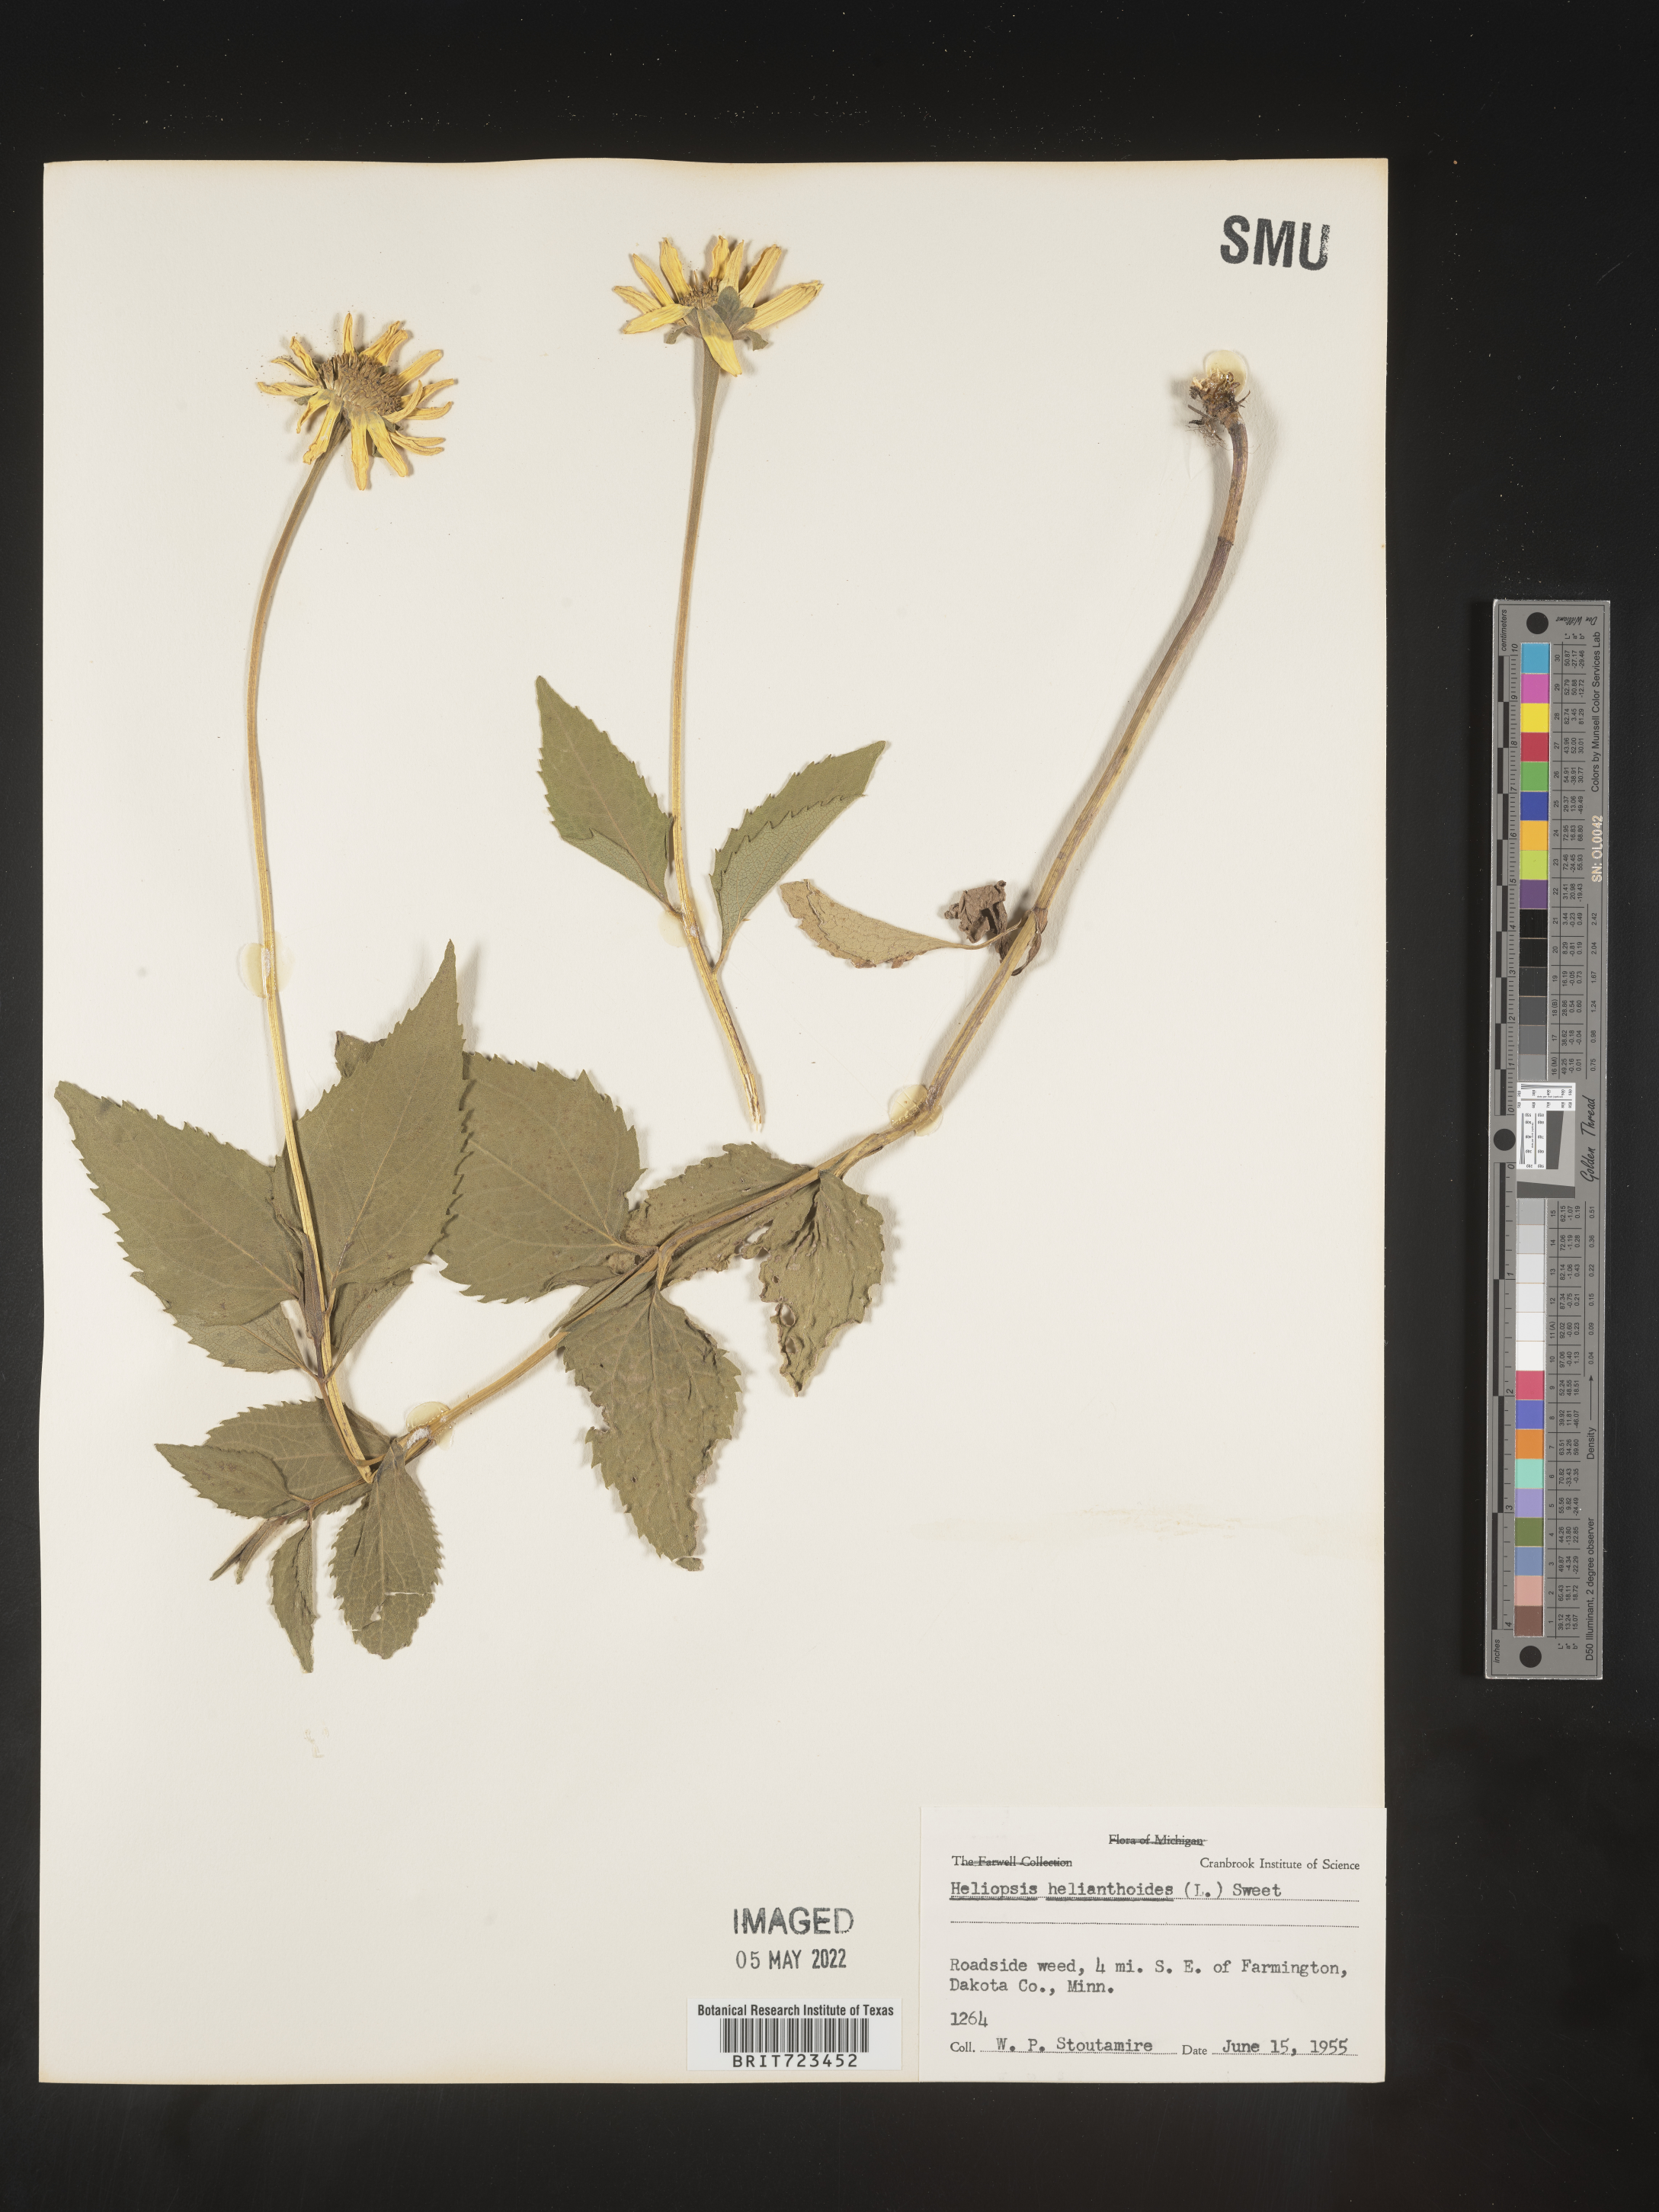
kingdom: Plantae
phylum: Tracheophyta
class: Magnoliopsida
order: Asterales
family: Asteraceae
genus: Heliopsis
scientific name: Heliopsis helianthoides
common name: False sunflower
